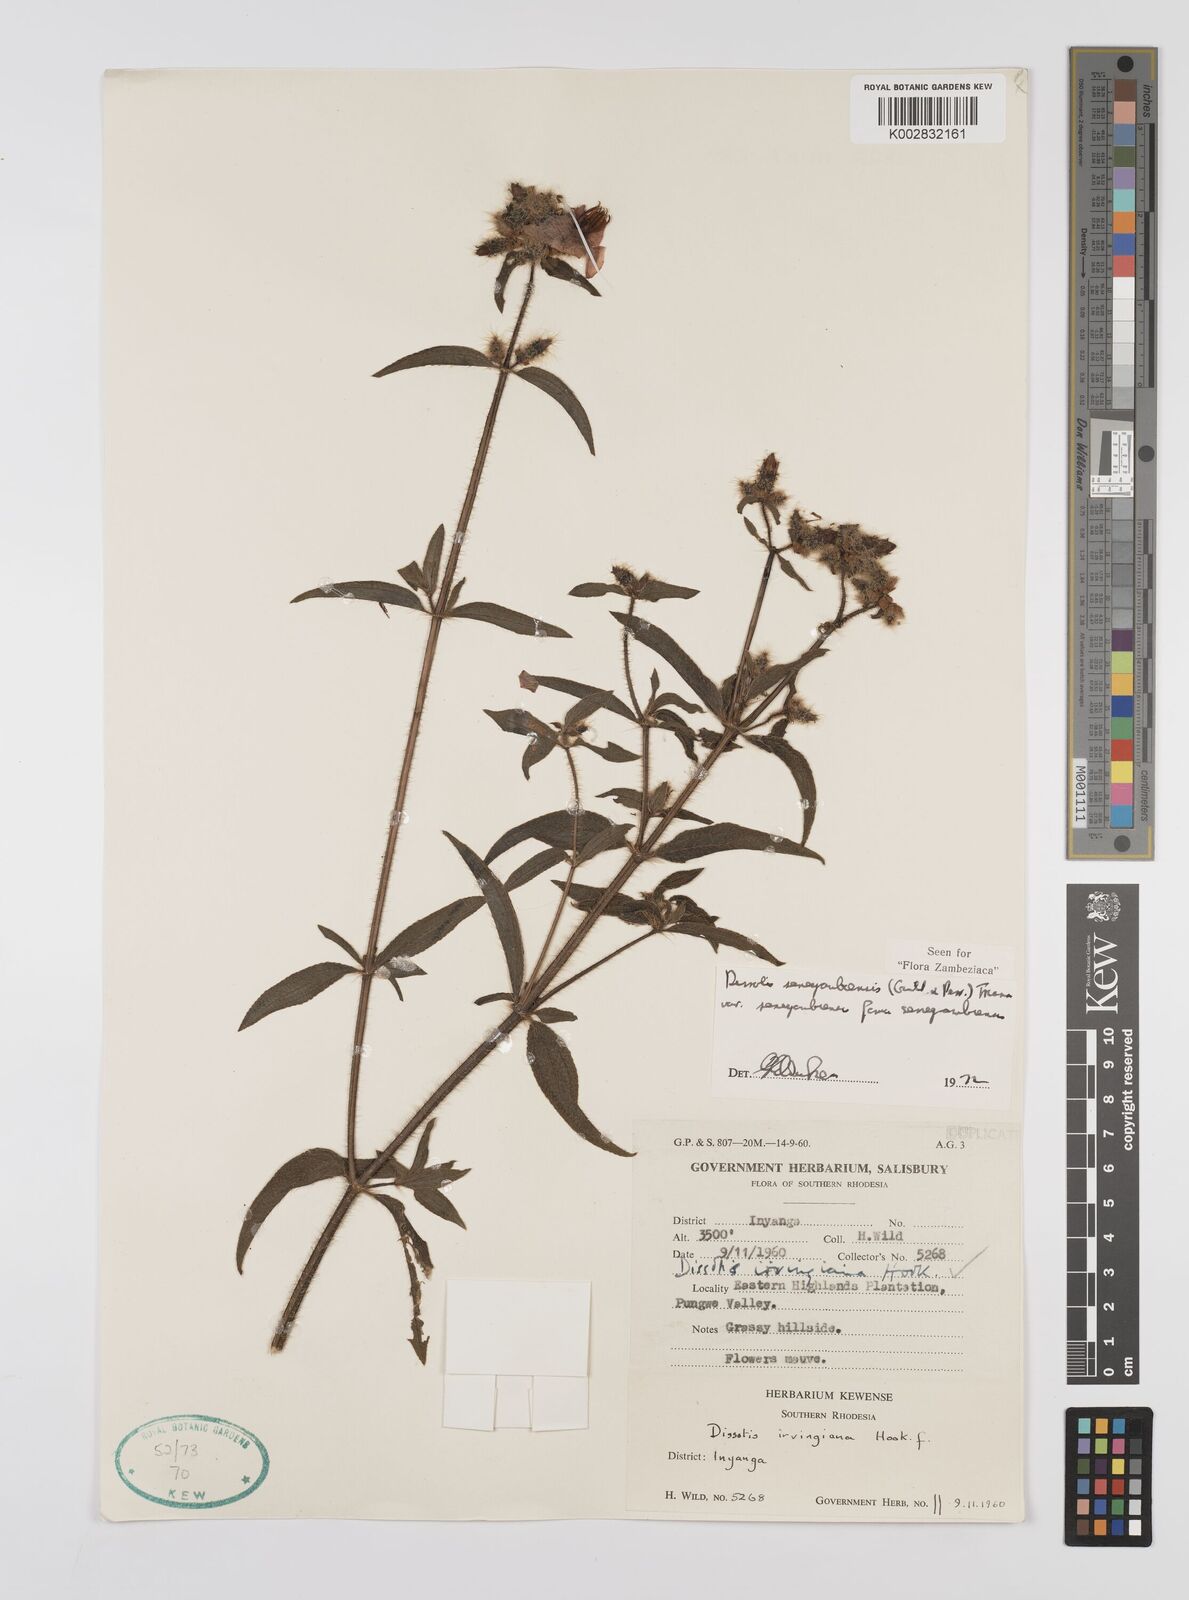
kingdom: Plantae
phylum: Tracheophyta
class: Magnoliopsida
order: Myrtales
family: Melastomataceae
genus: Nerophila
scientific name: Nerophila senegambiensis
